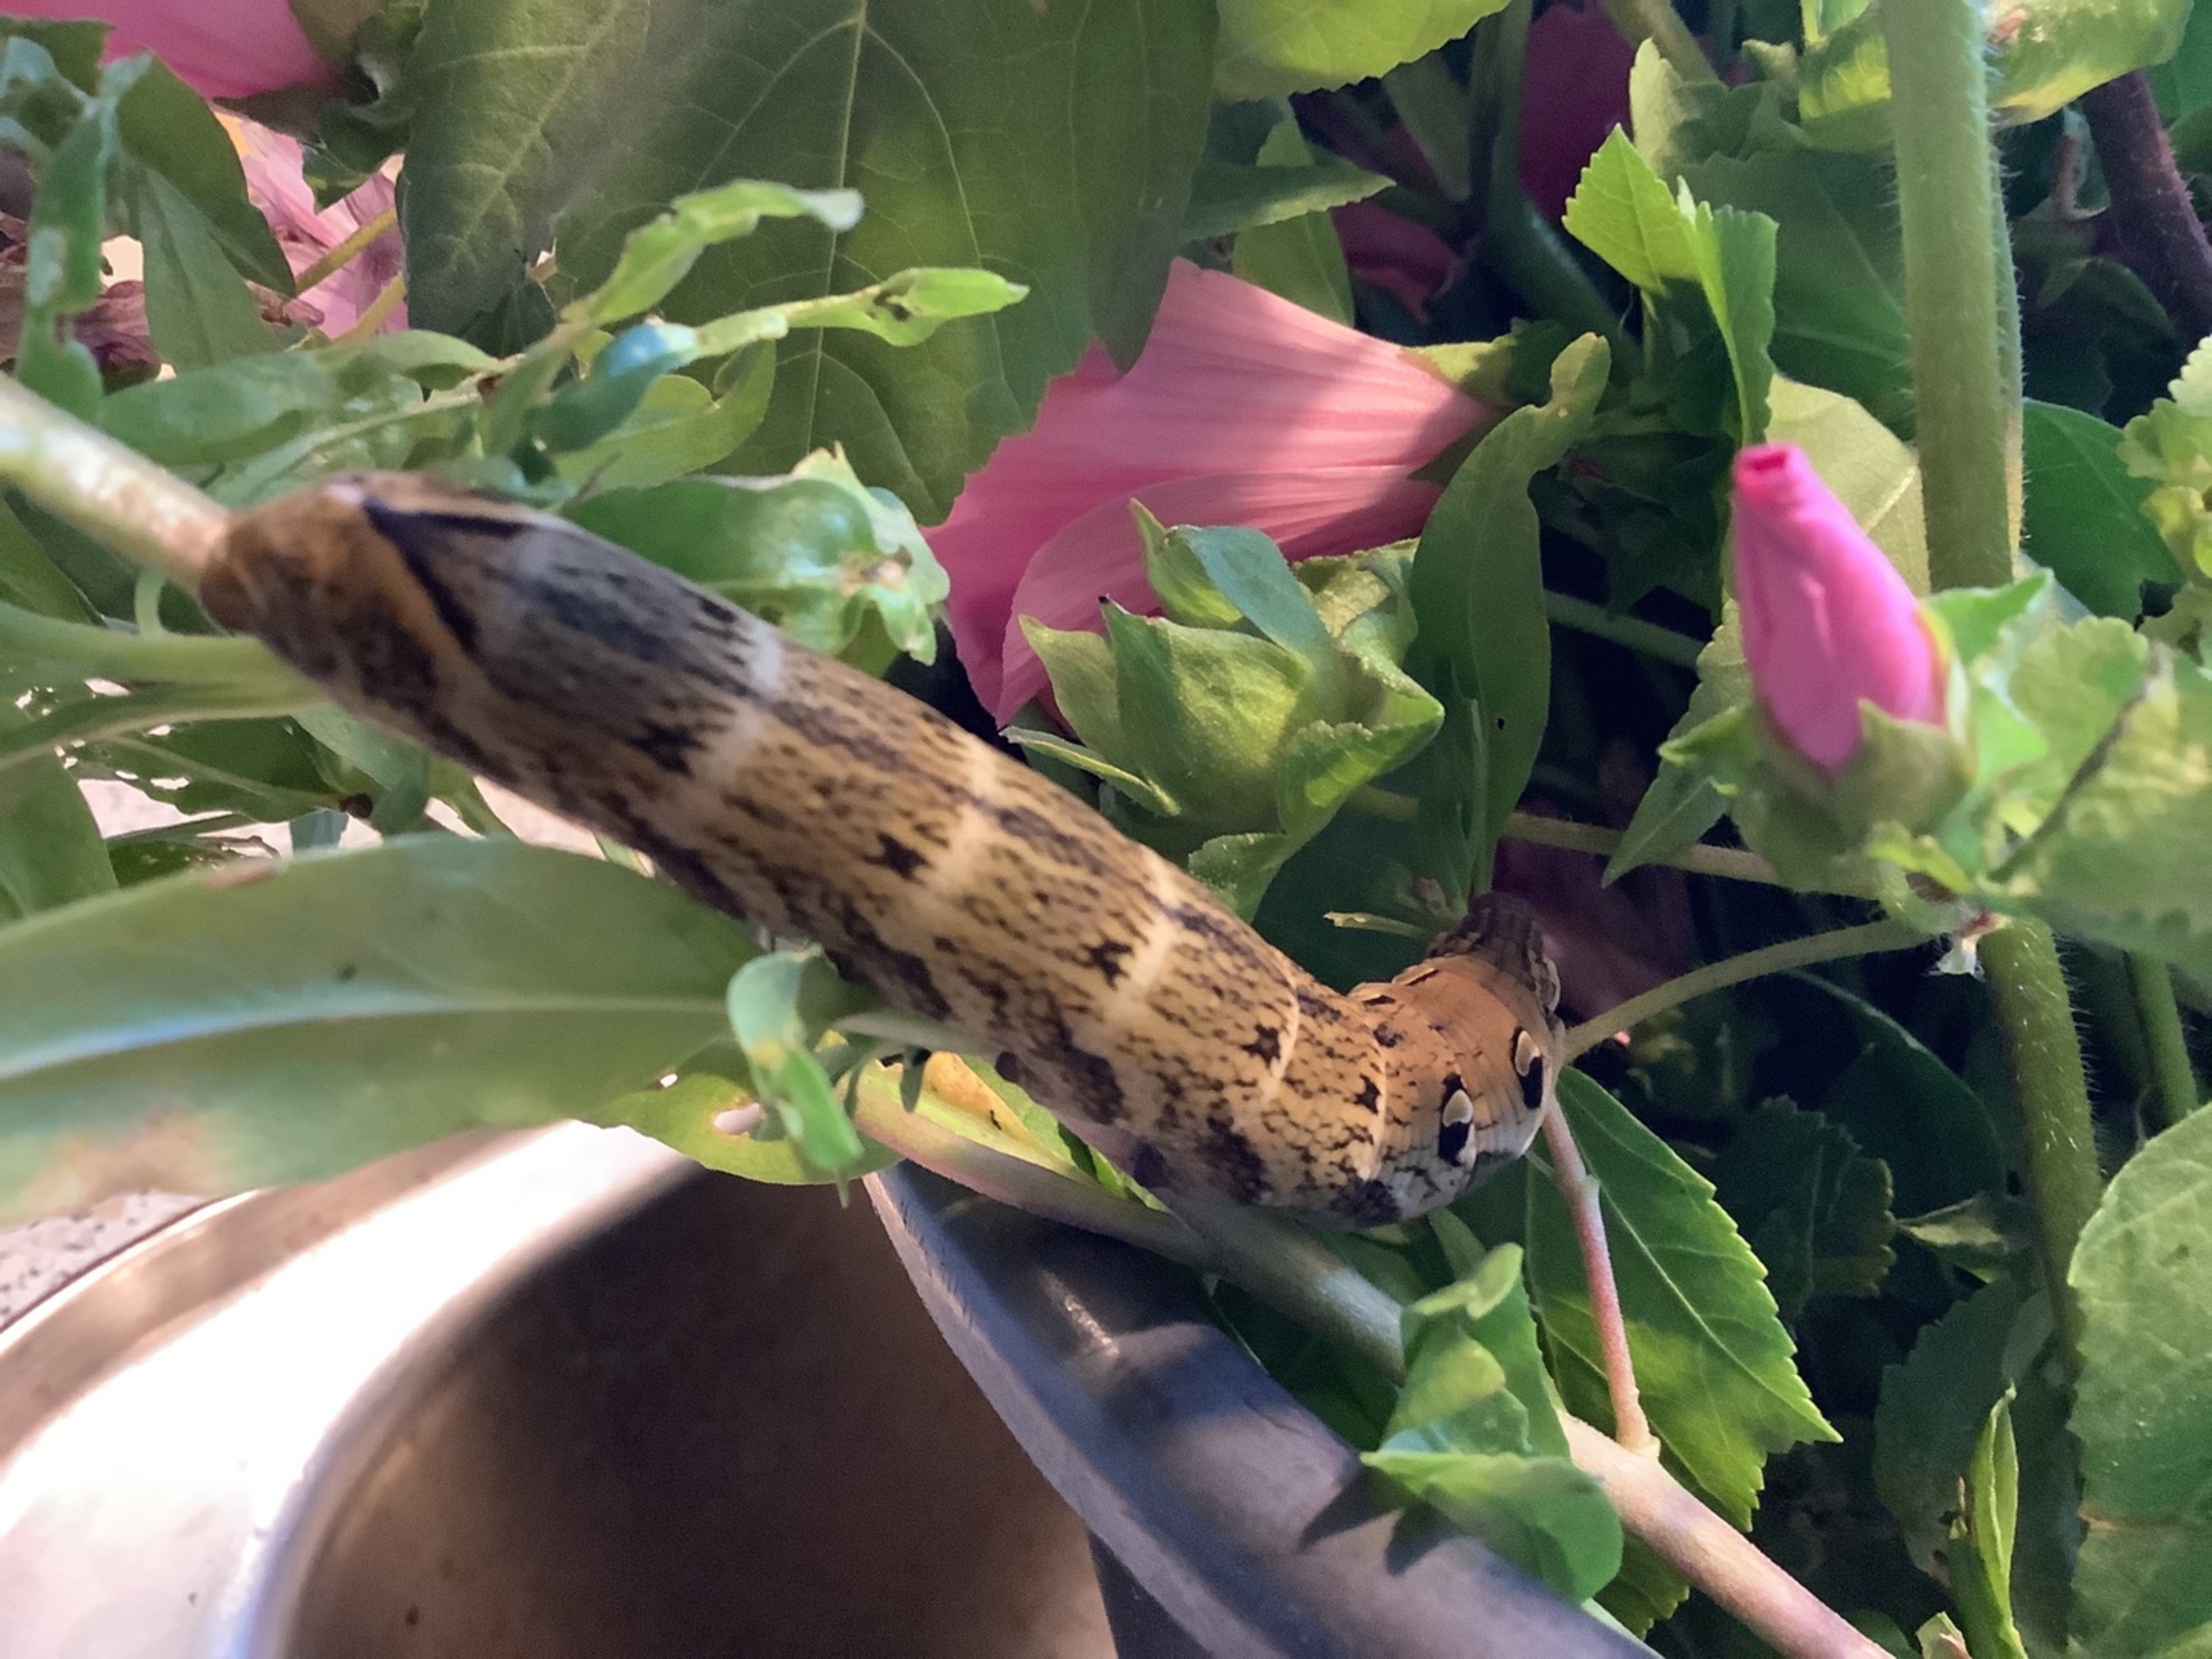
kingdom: Animalia
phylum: Arthropoda
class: Insecta
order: Lepidoptera
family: Sphingidae
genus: Deilephila
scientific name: Deilephila elpenor
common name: Dueurtsværmer
